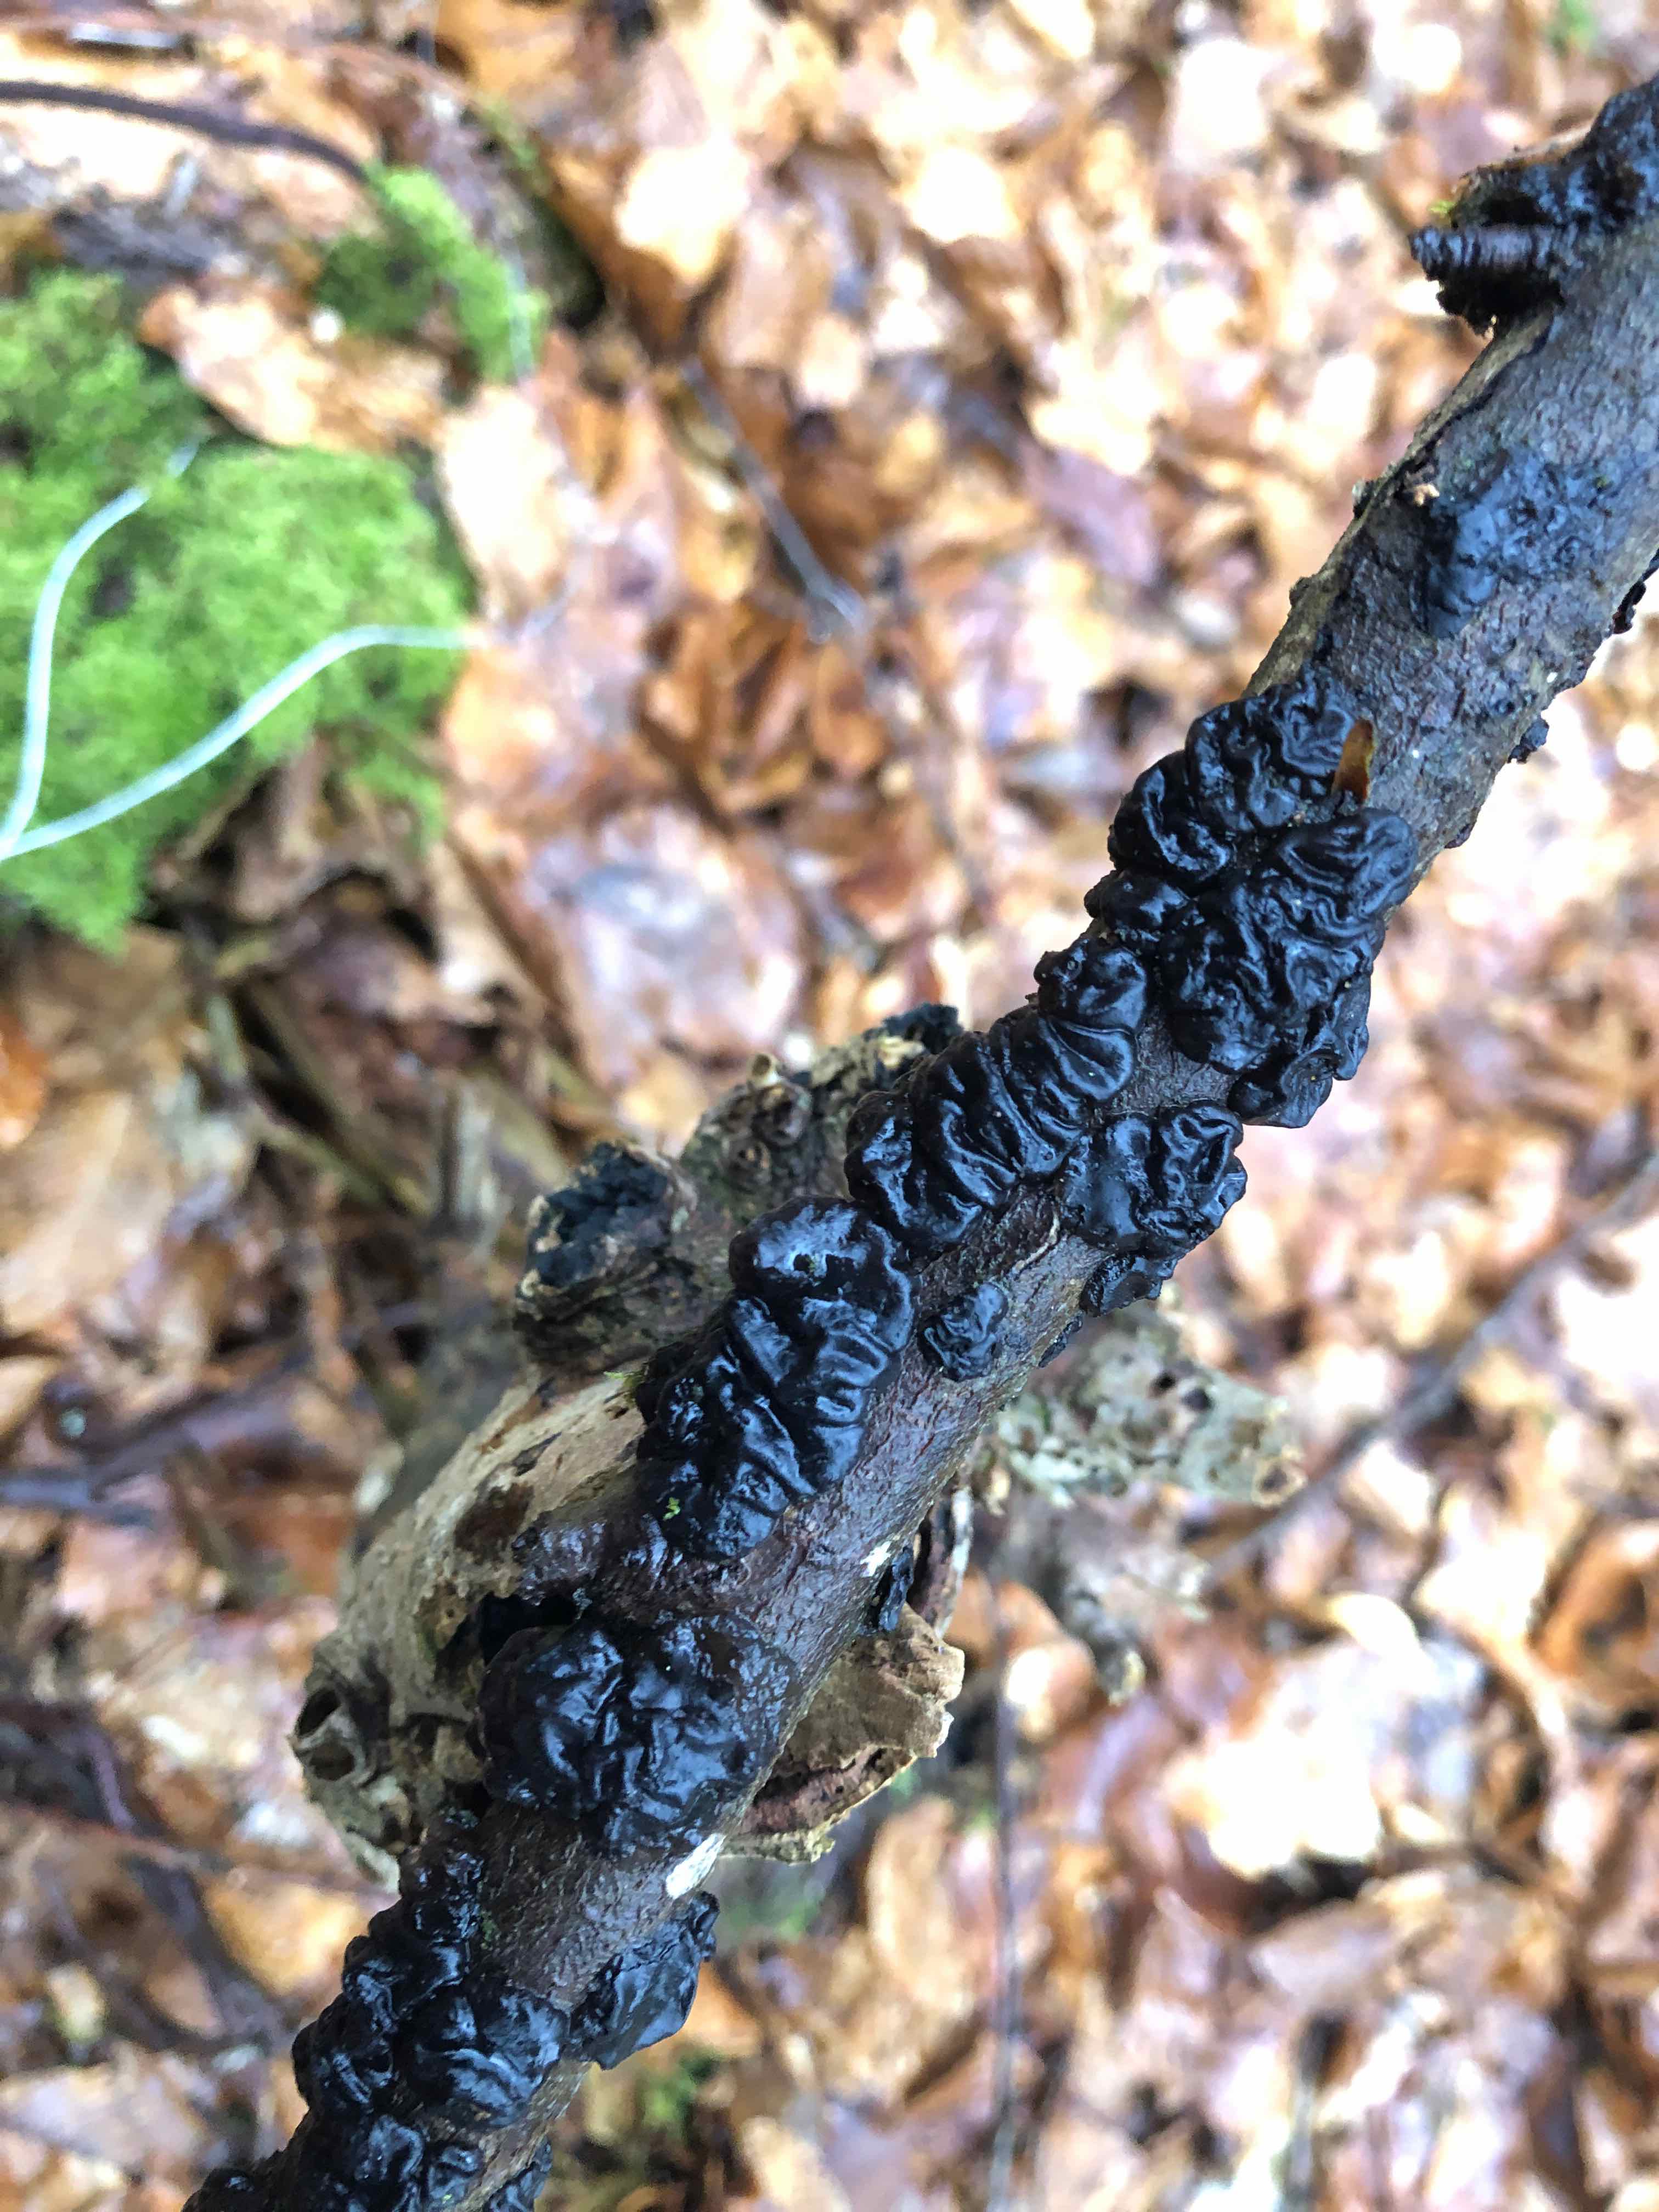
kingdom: Fungi
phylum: Basidiomycota
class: Agaricomycetes
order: Auriculariales
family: Auriculariaceae
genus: Exidia
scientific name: Exidia nigricans
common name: almindelig bævretop
